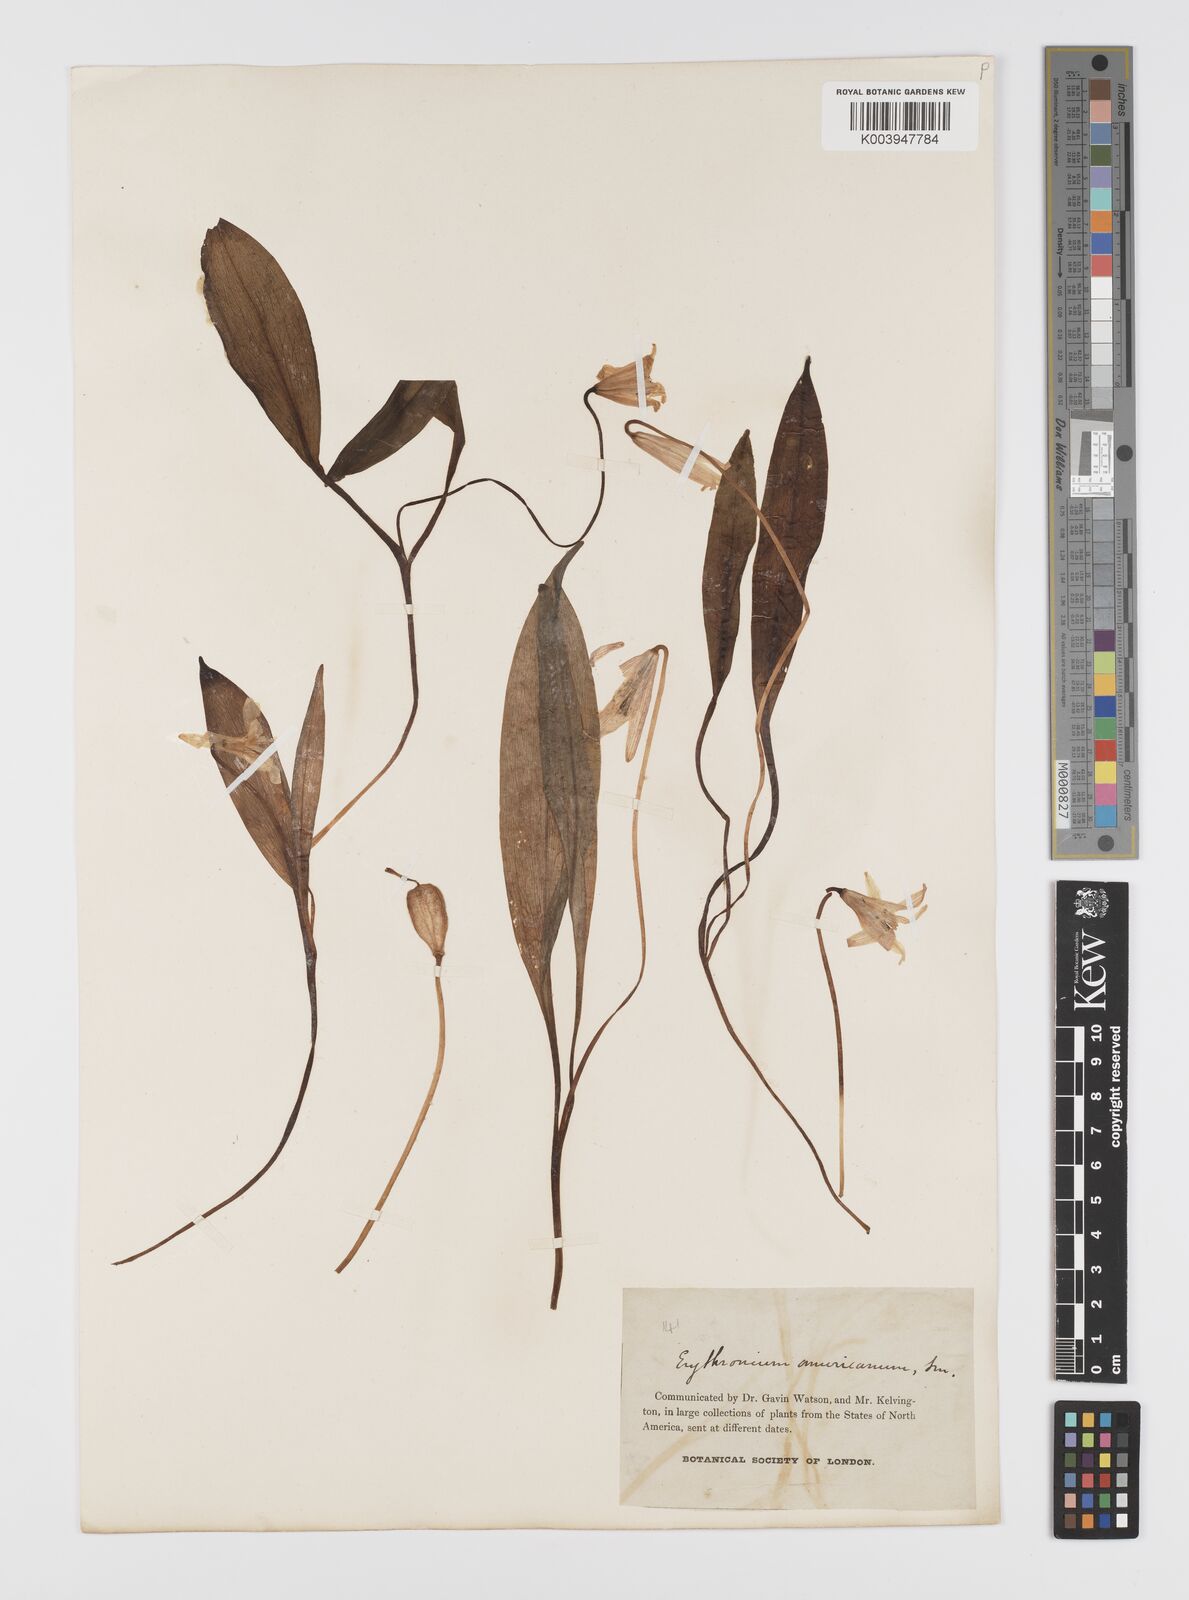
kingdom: Plantae
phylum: Tracheophyta
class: Liliopsida
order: Liliales
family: Liliaceae
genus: Erythronium
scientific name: Erythronium americanum
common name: Yellow adder's-tongue
